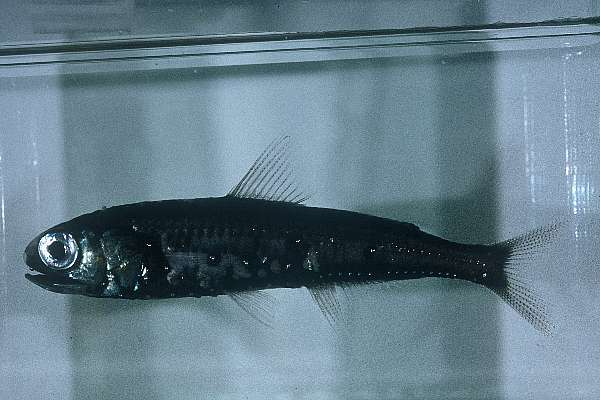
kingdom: Animalia
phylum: Chordata
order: Myctophiformes
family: Myctophidae
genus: Symbolophorus
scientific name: Symbolophorus barnardi
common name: Barnard's lanternfish
